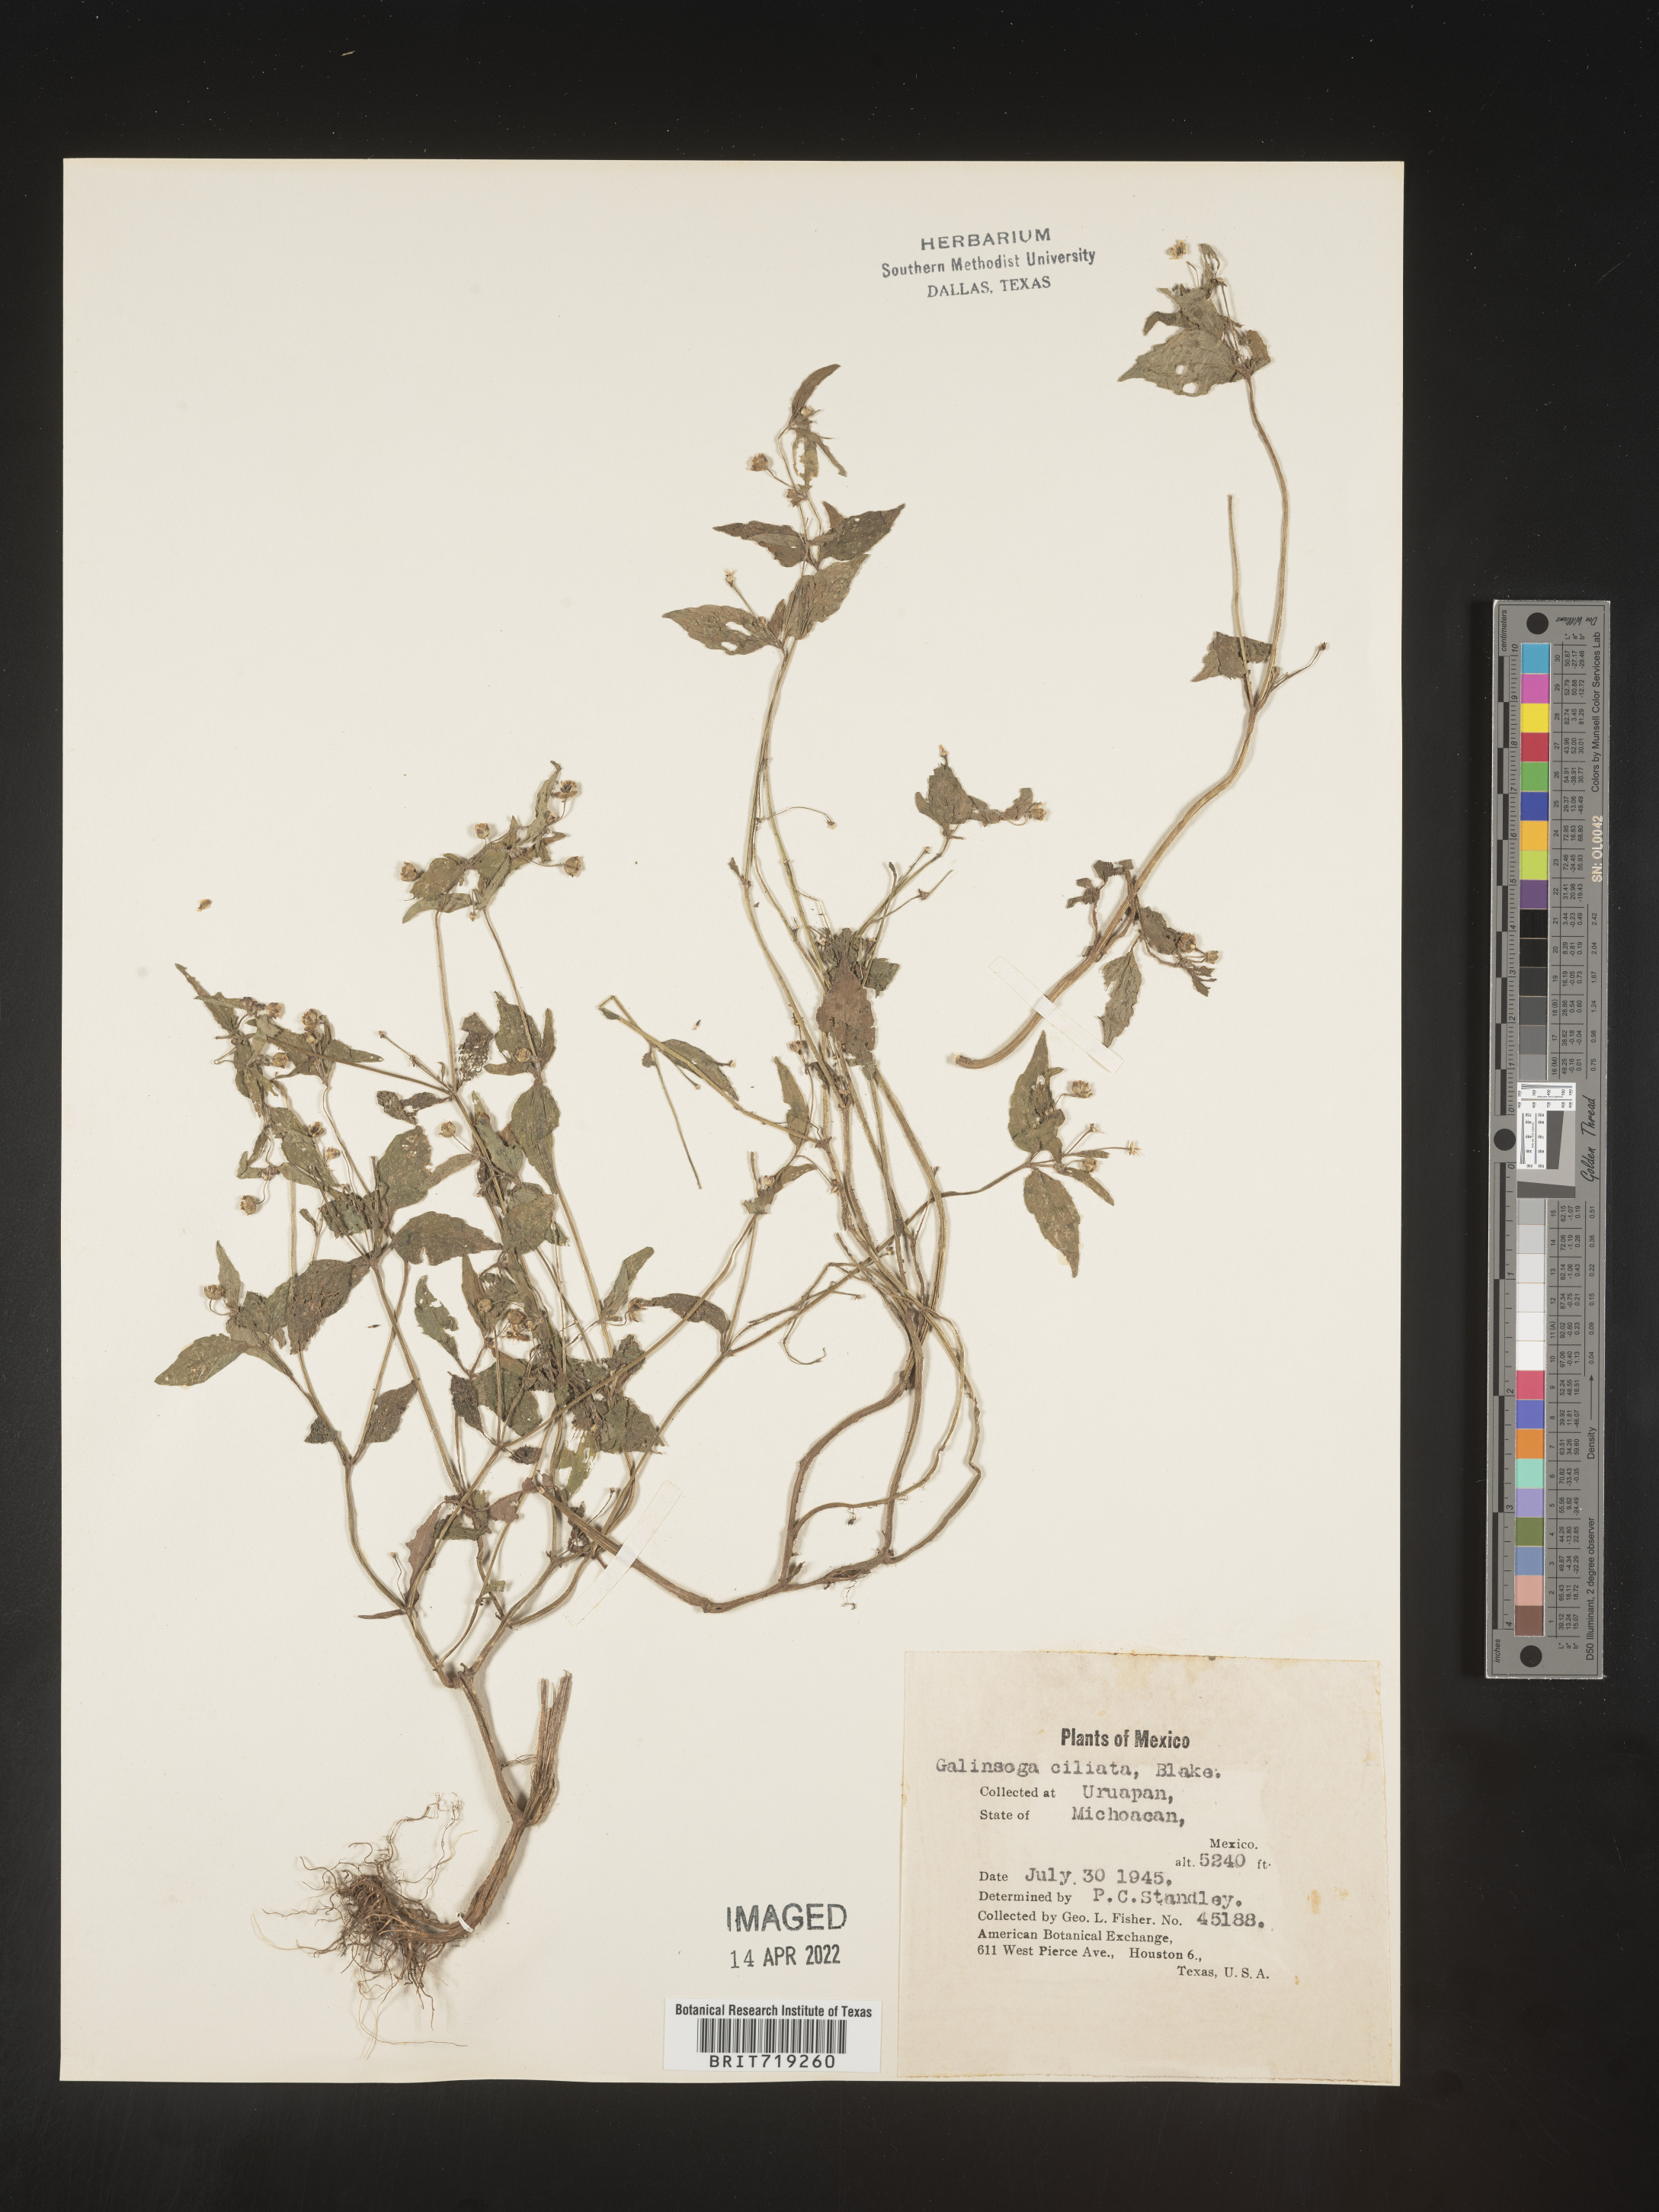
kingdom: Plantae
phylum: Tracheophyta
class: Magnoliopsida
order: Asterales
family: Asteraceae
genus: Galinsoga
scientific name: Galinsoga
